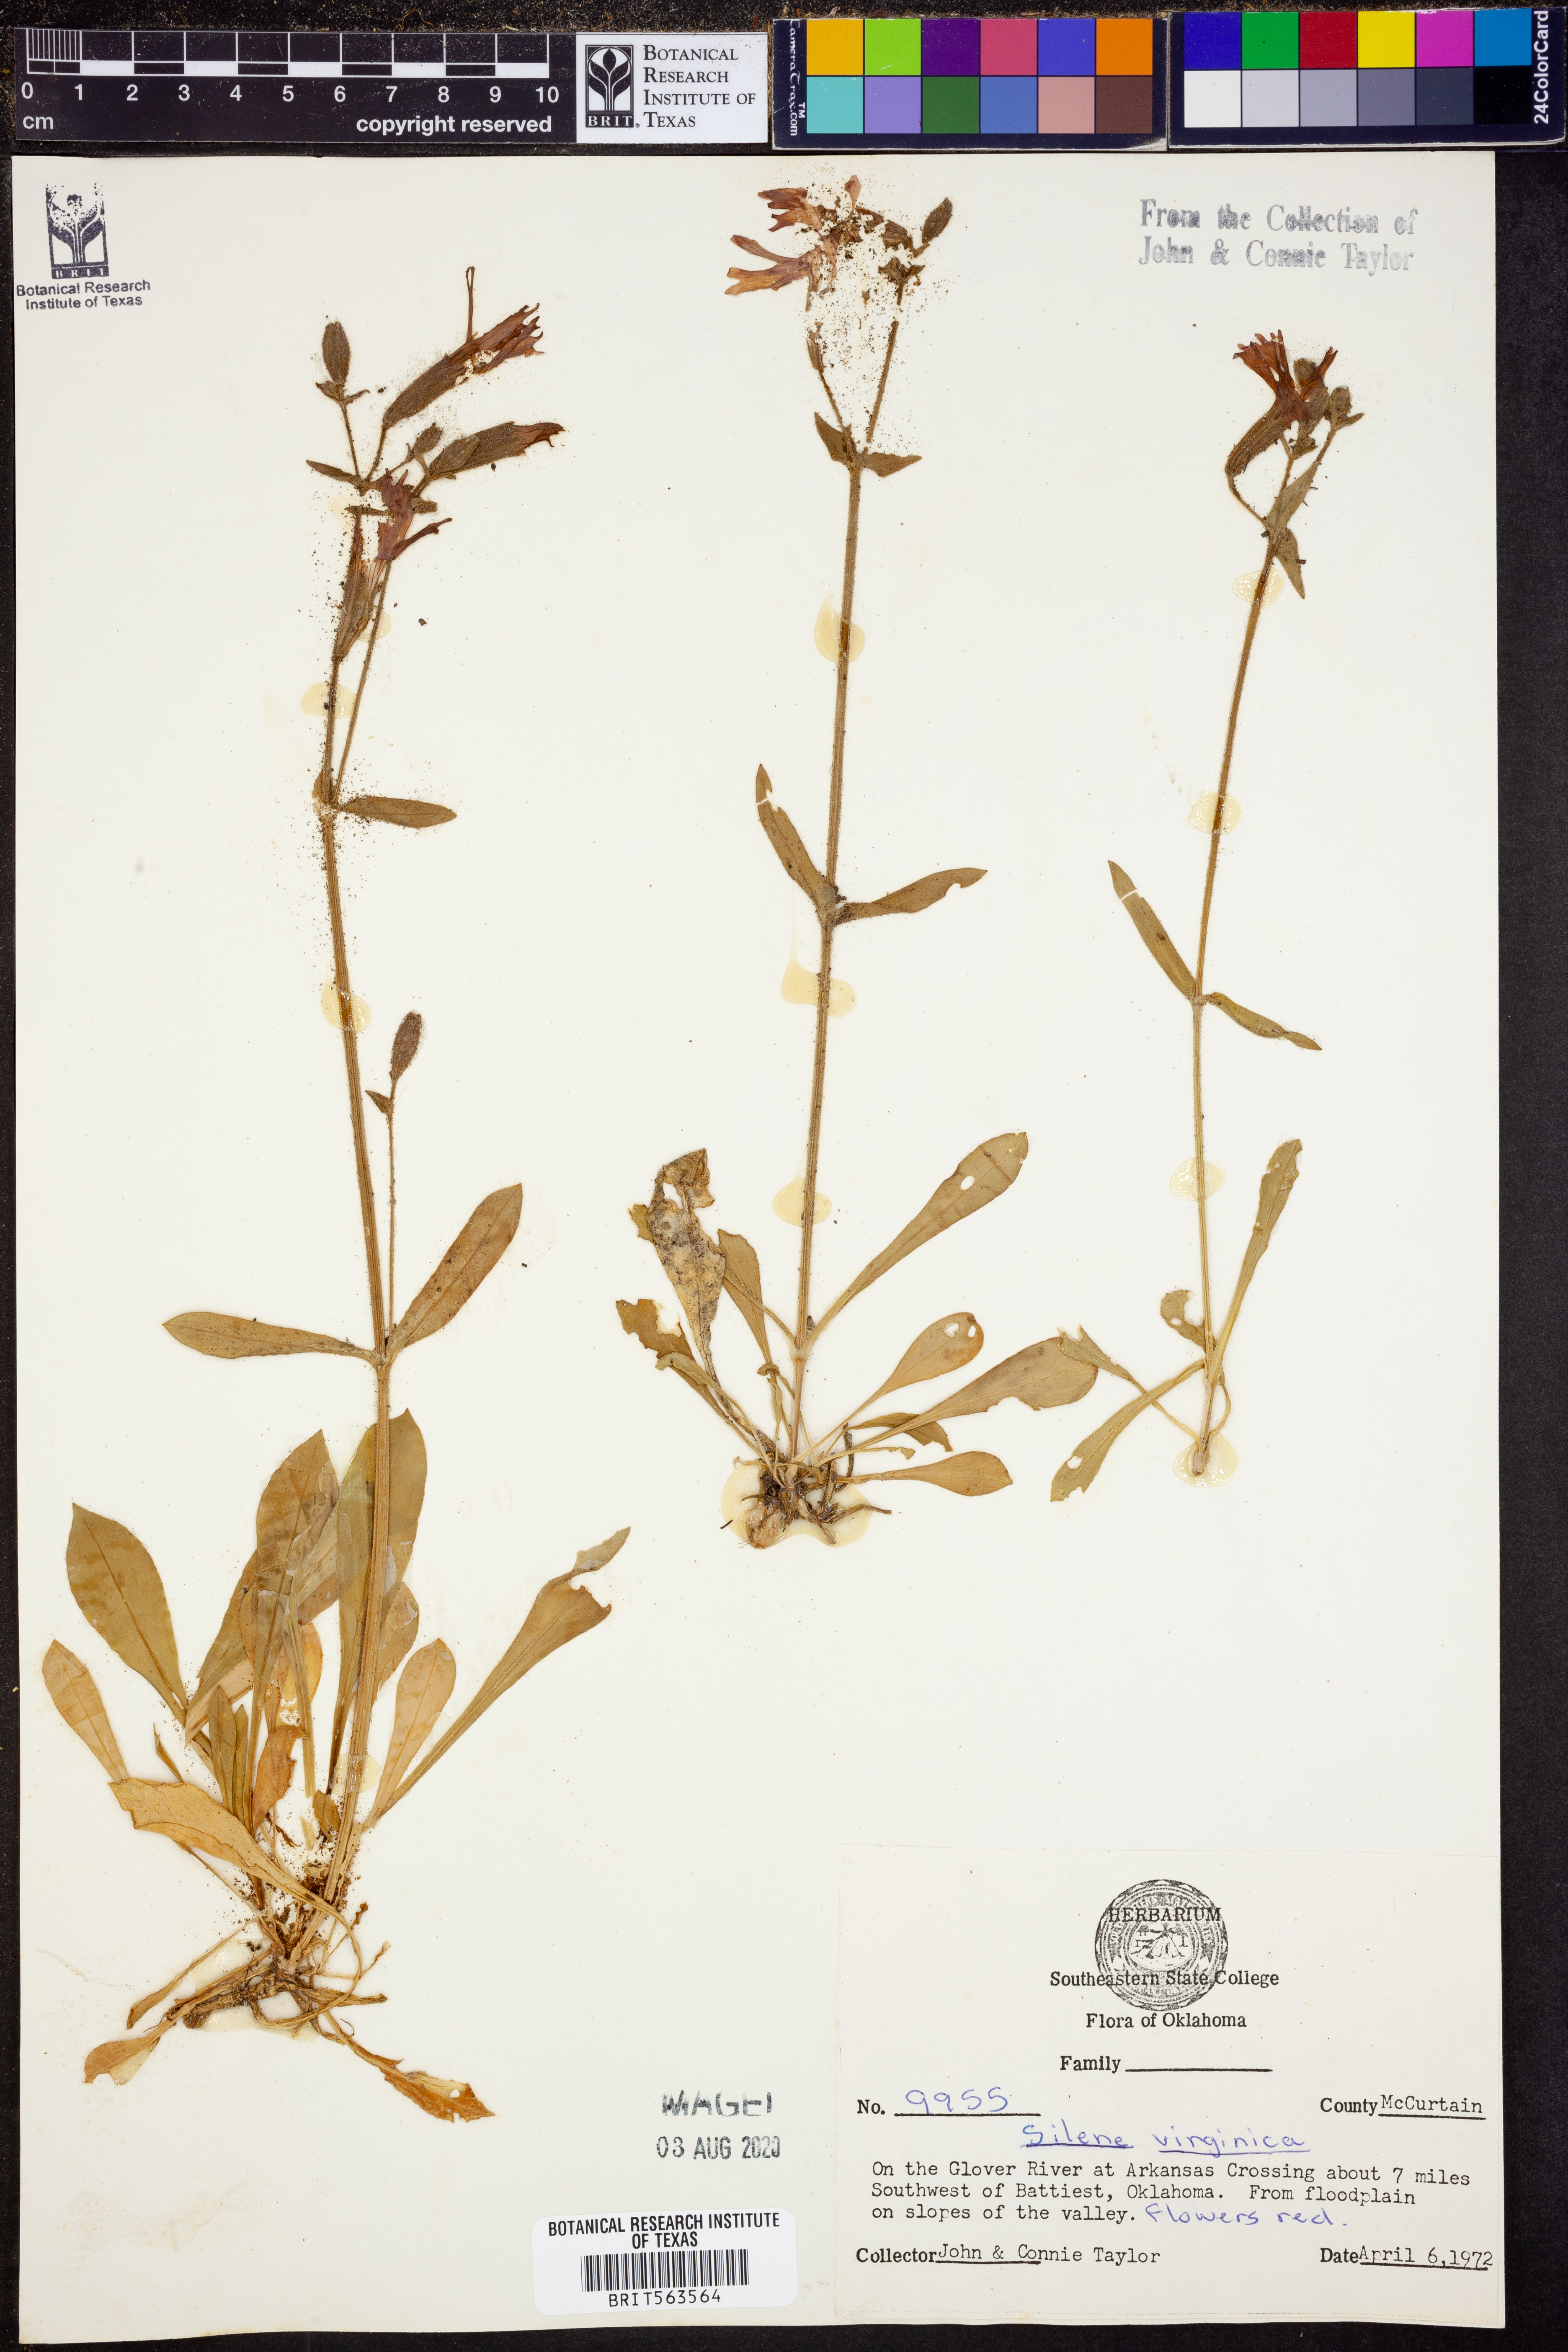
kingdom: Plantae
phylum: Tracheophyta
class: Magnoliopsida
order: Caryophyllales
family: Caryophyllaceae
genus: Silene
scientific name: Silene virginica
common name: Fire-pink
